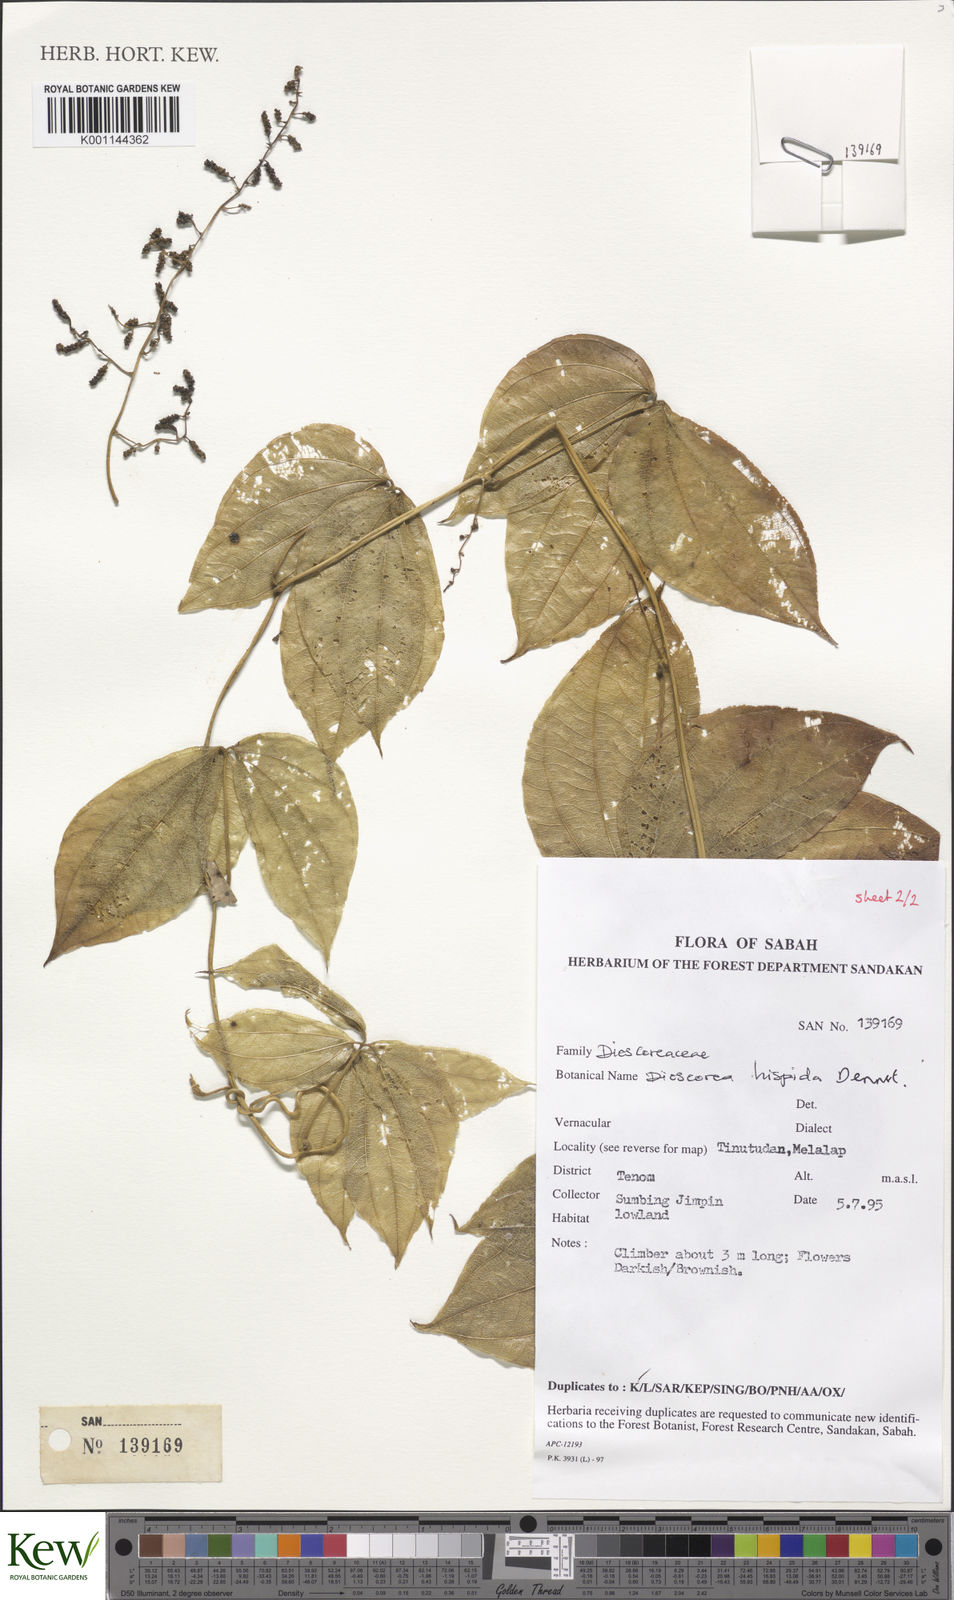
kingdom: Plantae
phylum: Tracheophyta
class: Liliopsida
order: Dioscoreales
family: Dioscoreaceae
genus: Dioscorea
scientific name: Dioscorea hispida
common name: Asiatic bitter yam
